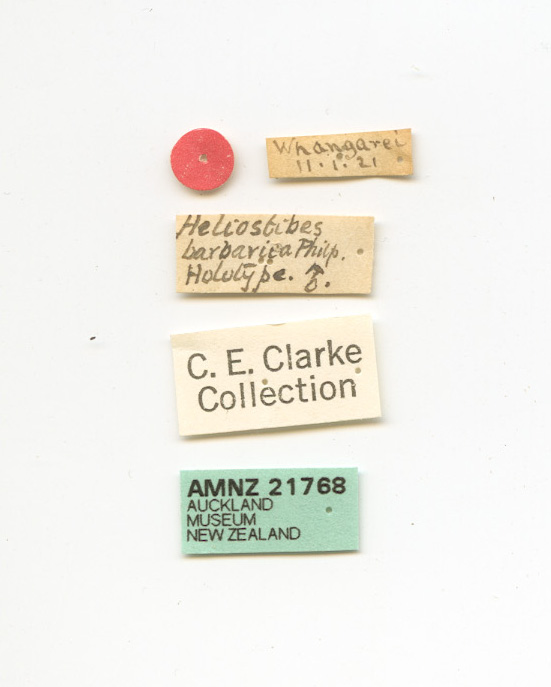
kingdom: Animalia
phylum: Arthropoda
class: Insecta
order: Lepidoptera
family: Oecophoridae
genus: Hierodoris
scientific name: Hierodoris atychioides
